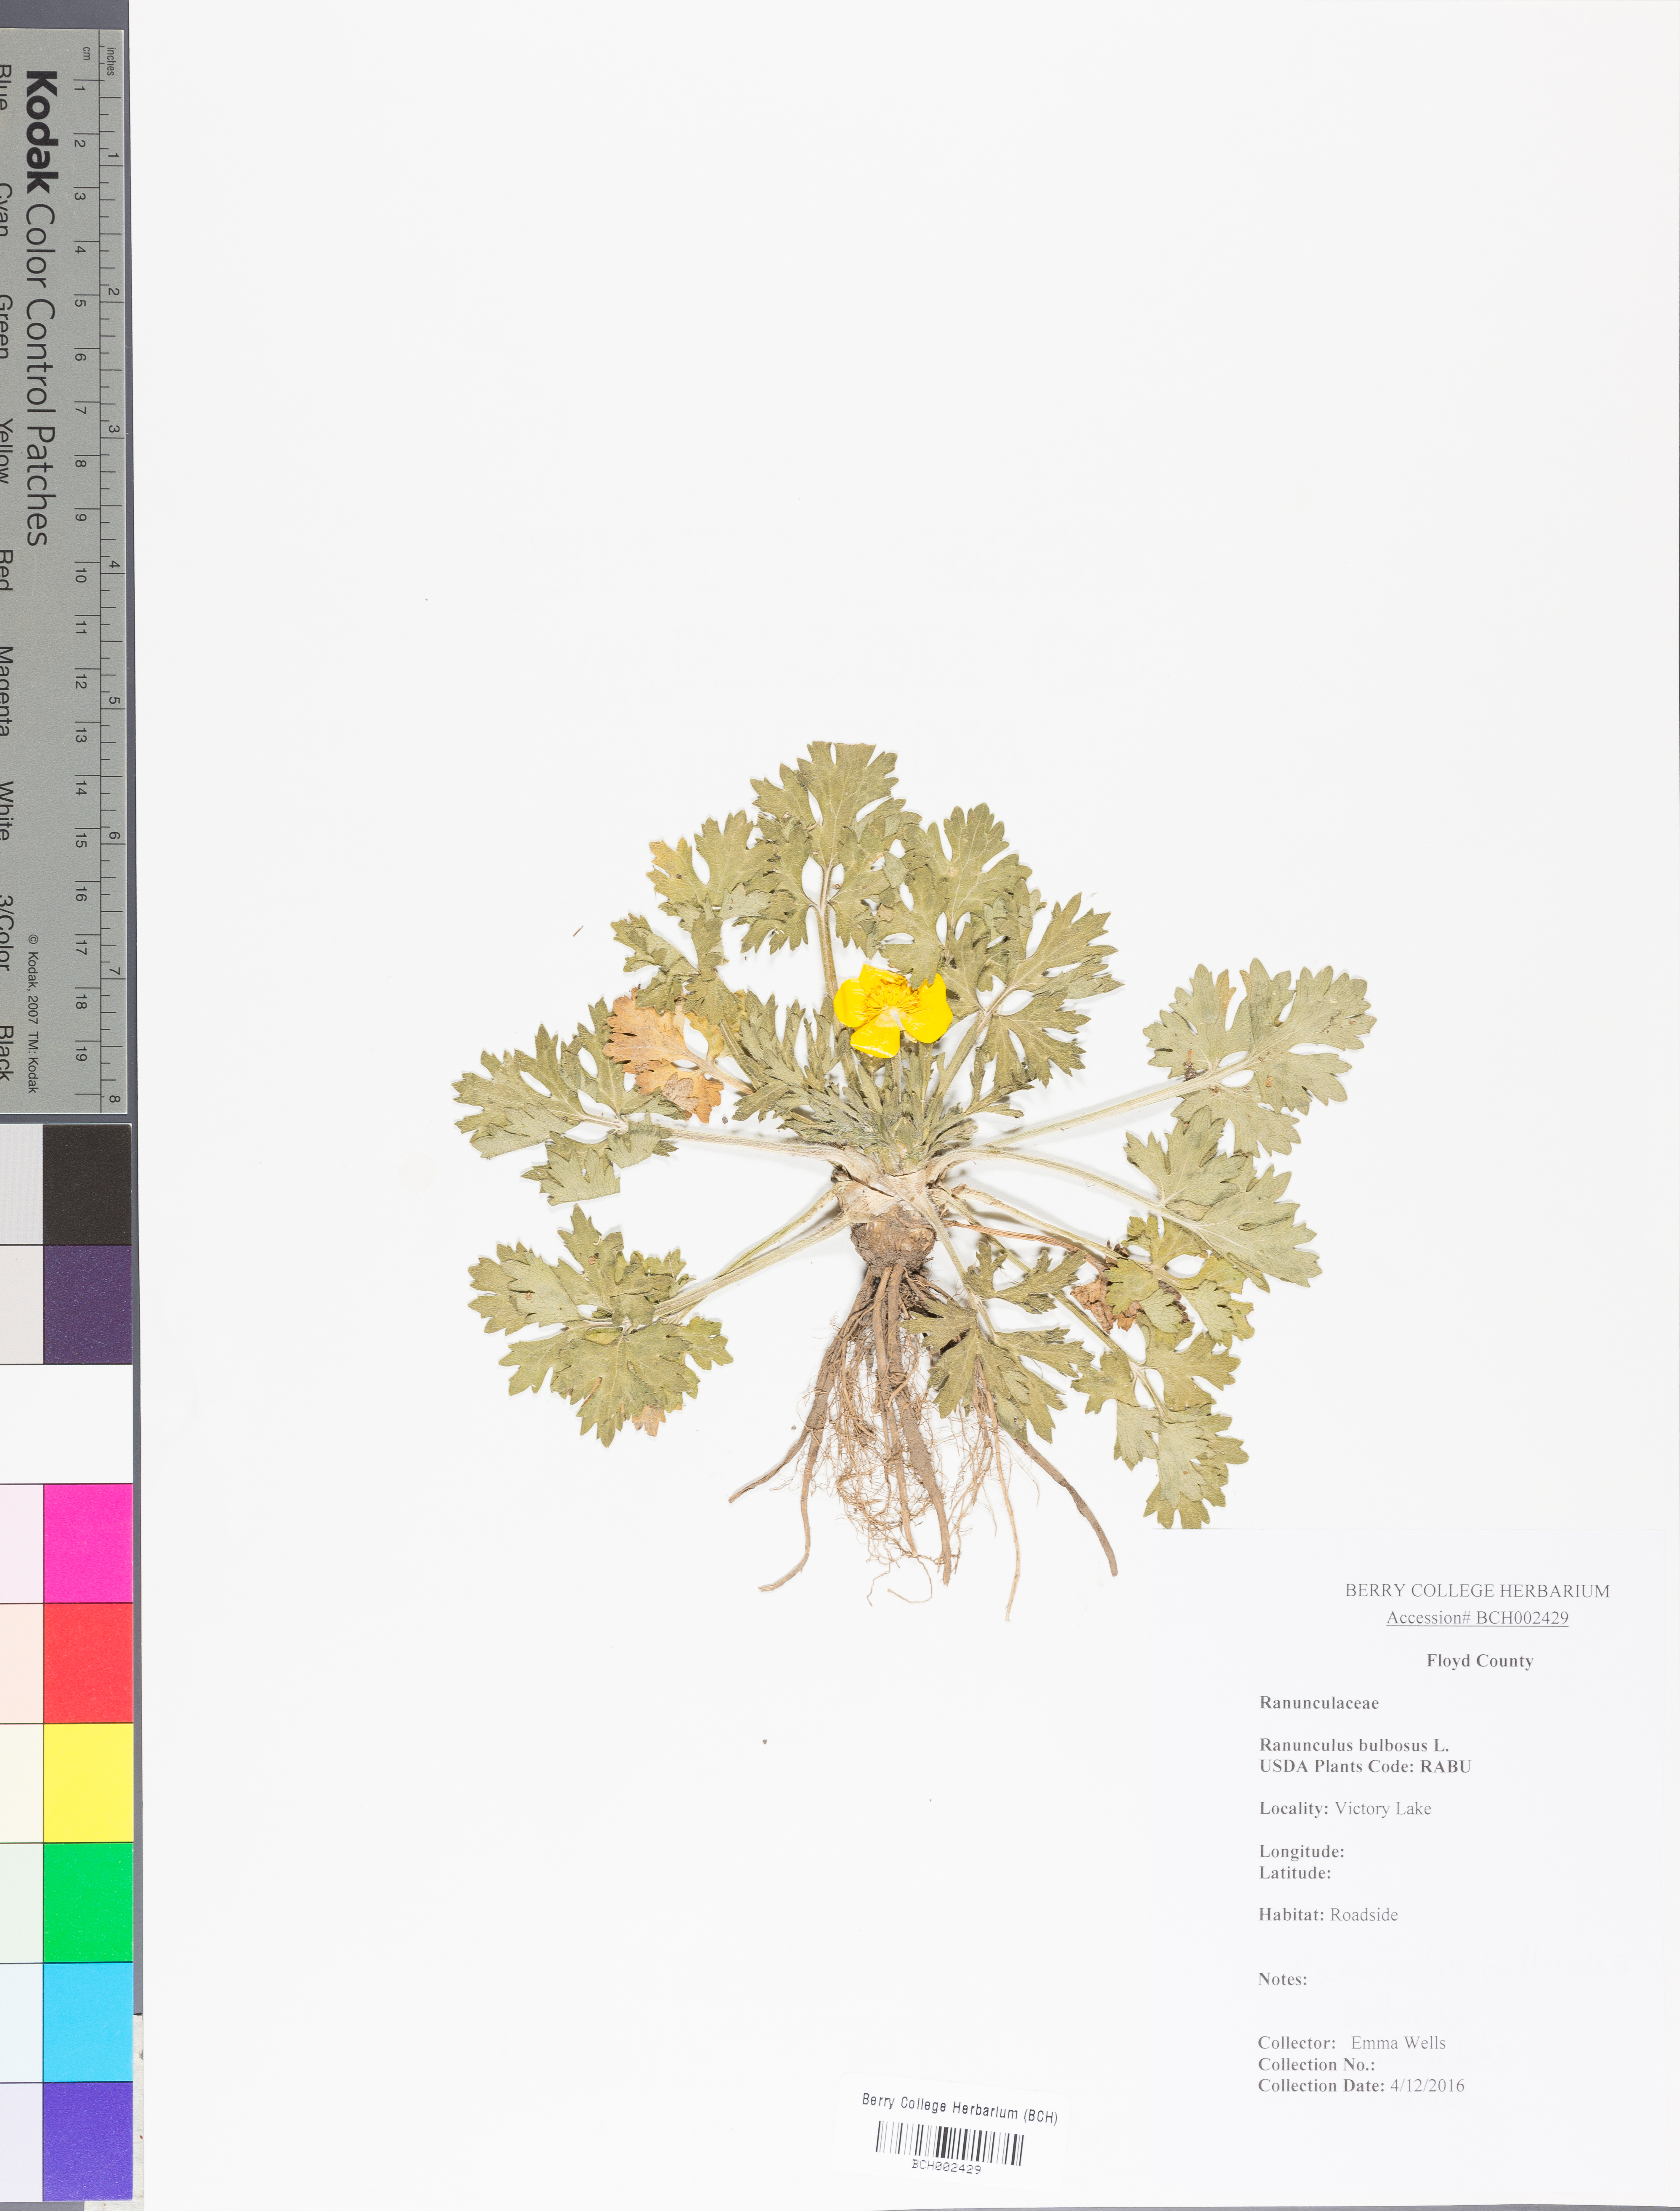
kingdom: Plantae
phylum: Tracheophyta
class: Magnoliopsida
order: Ranunculales
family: Ranunculaceae
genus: Ranunculus
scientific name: Ranunculus bulbosus
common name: Bulbous buttercup
